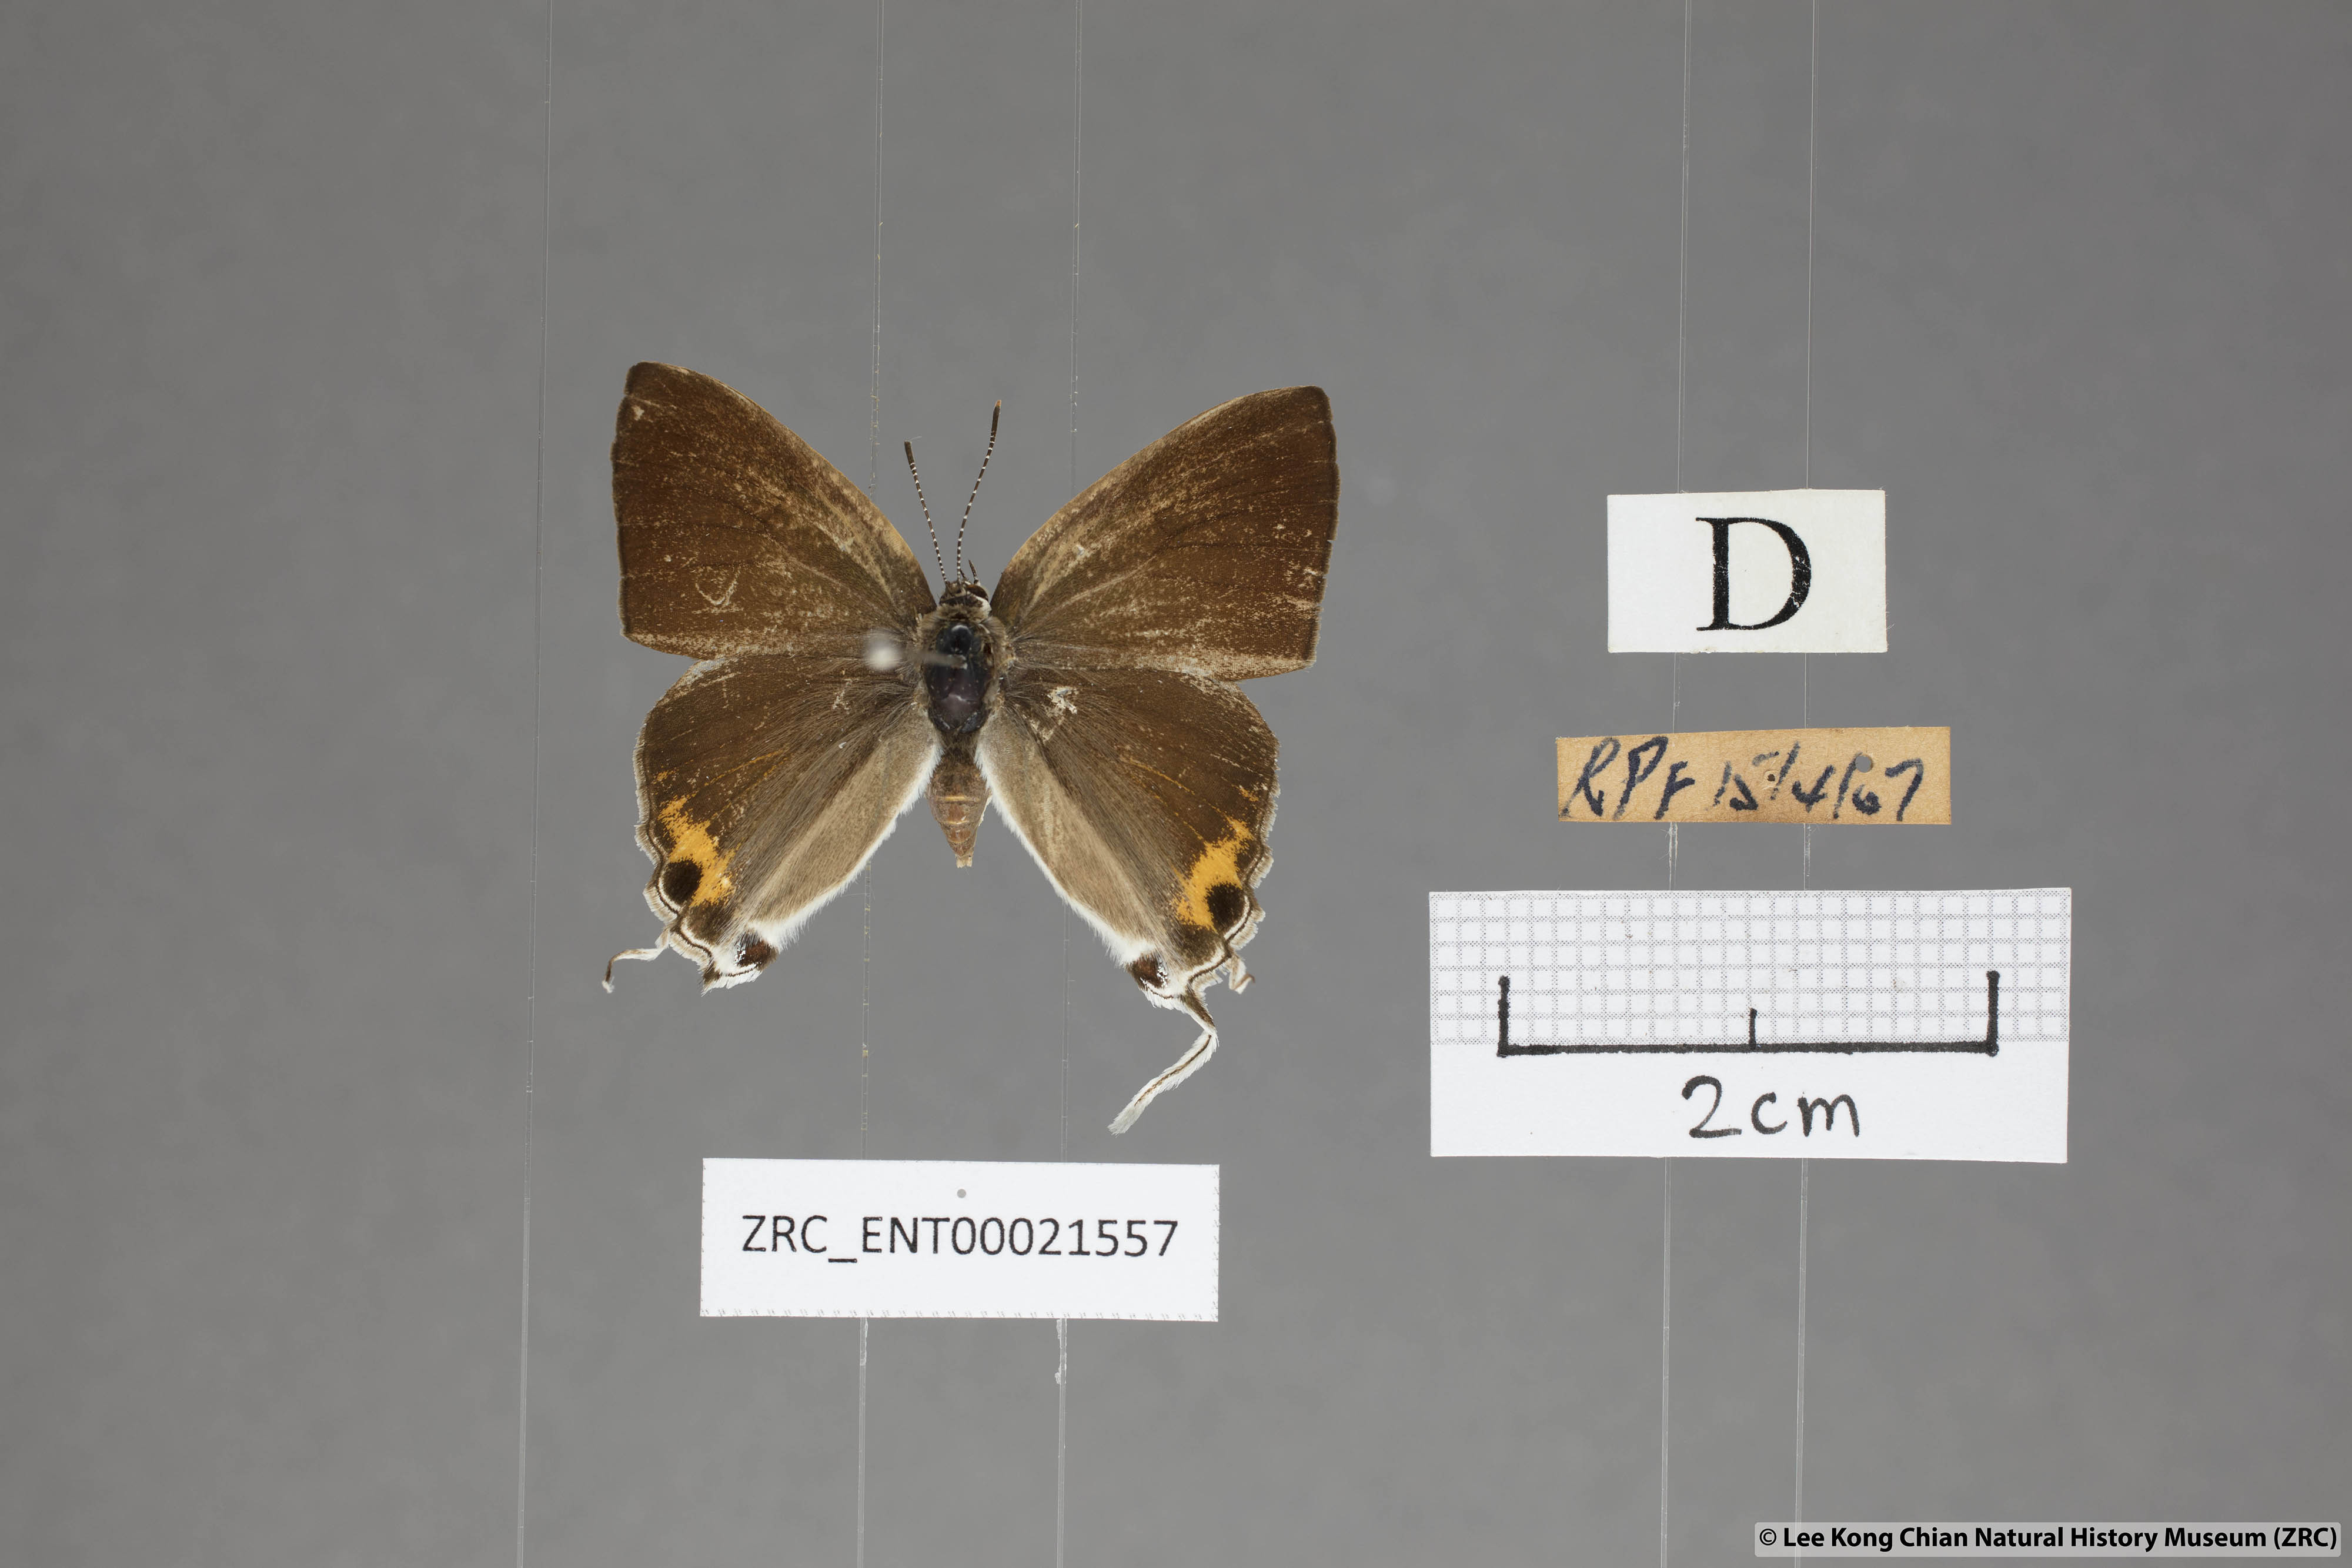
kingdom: Animalia
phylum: Arthropoda
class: Insecta
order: Lepidoptera
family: Lycaenidae
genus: Hypolycaena
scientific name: Hypolycaena thecloides
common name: Dark tit
